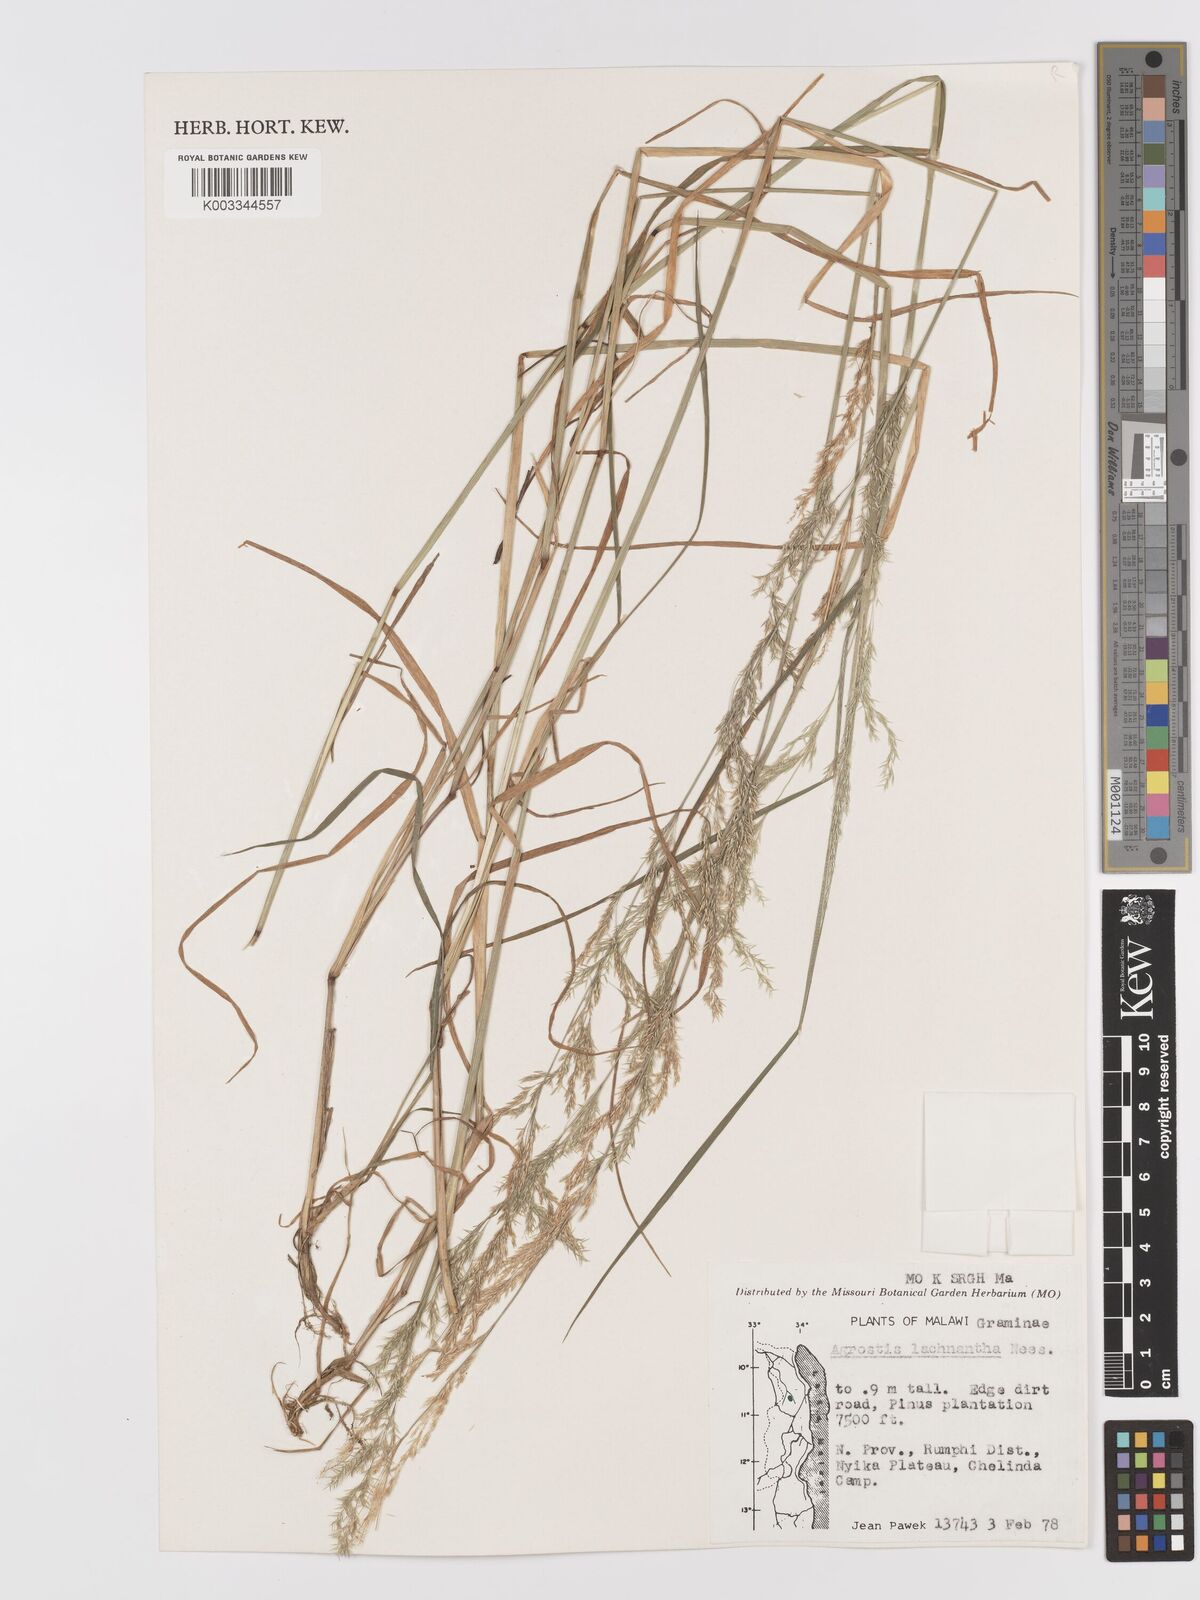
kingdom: Plantae
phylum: Tracheophyta
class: Liliopsida
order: Poales
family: Poaceae
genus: Lachnagrostis
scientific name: Lachnagrostis lachnantha
